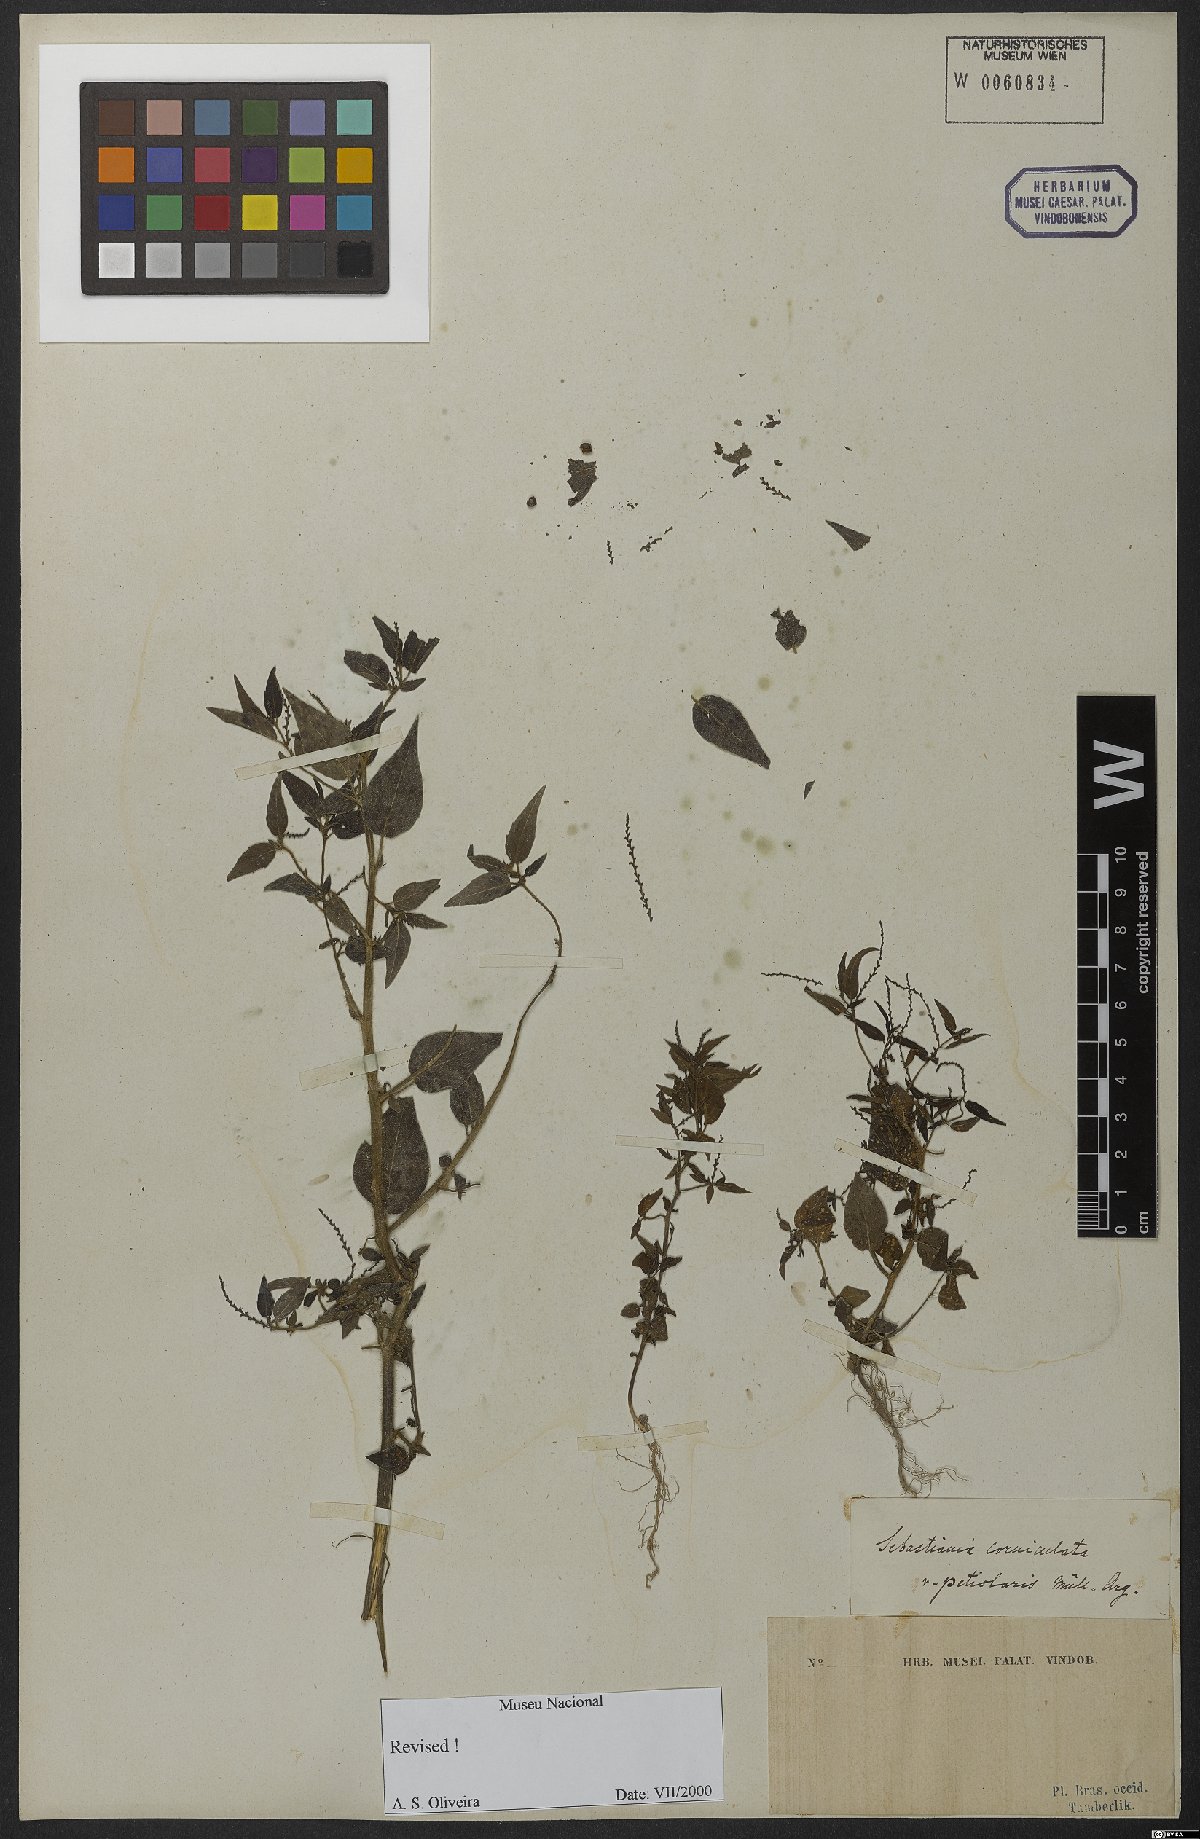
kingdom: Plantae
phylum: Tracheophyta
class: Magnoliopsida
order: Malpighiales
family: Euphorbiaceae
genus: Microstachys
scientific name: Microstachys corniculata
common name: Hato tejas
